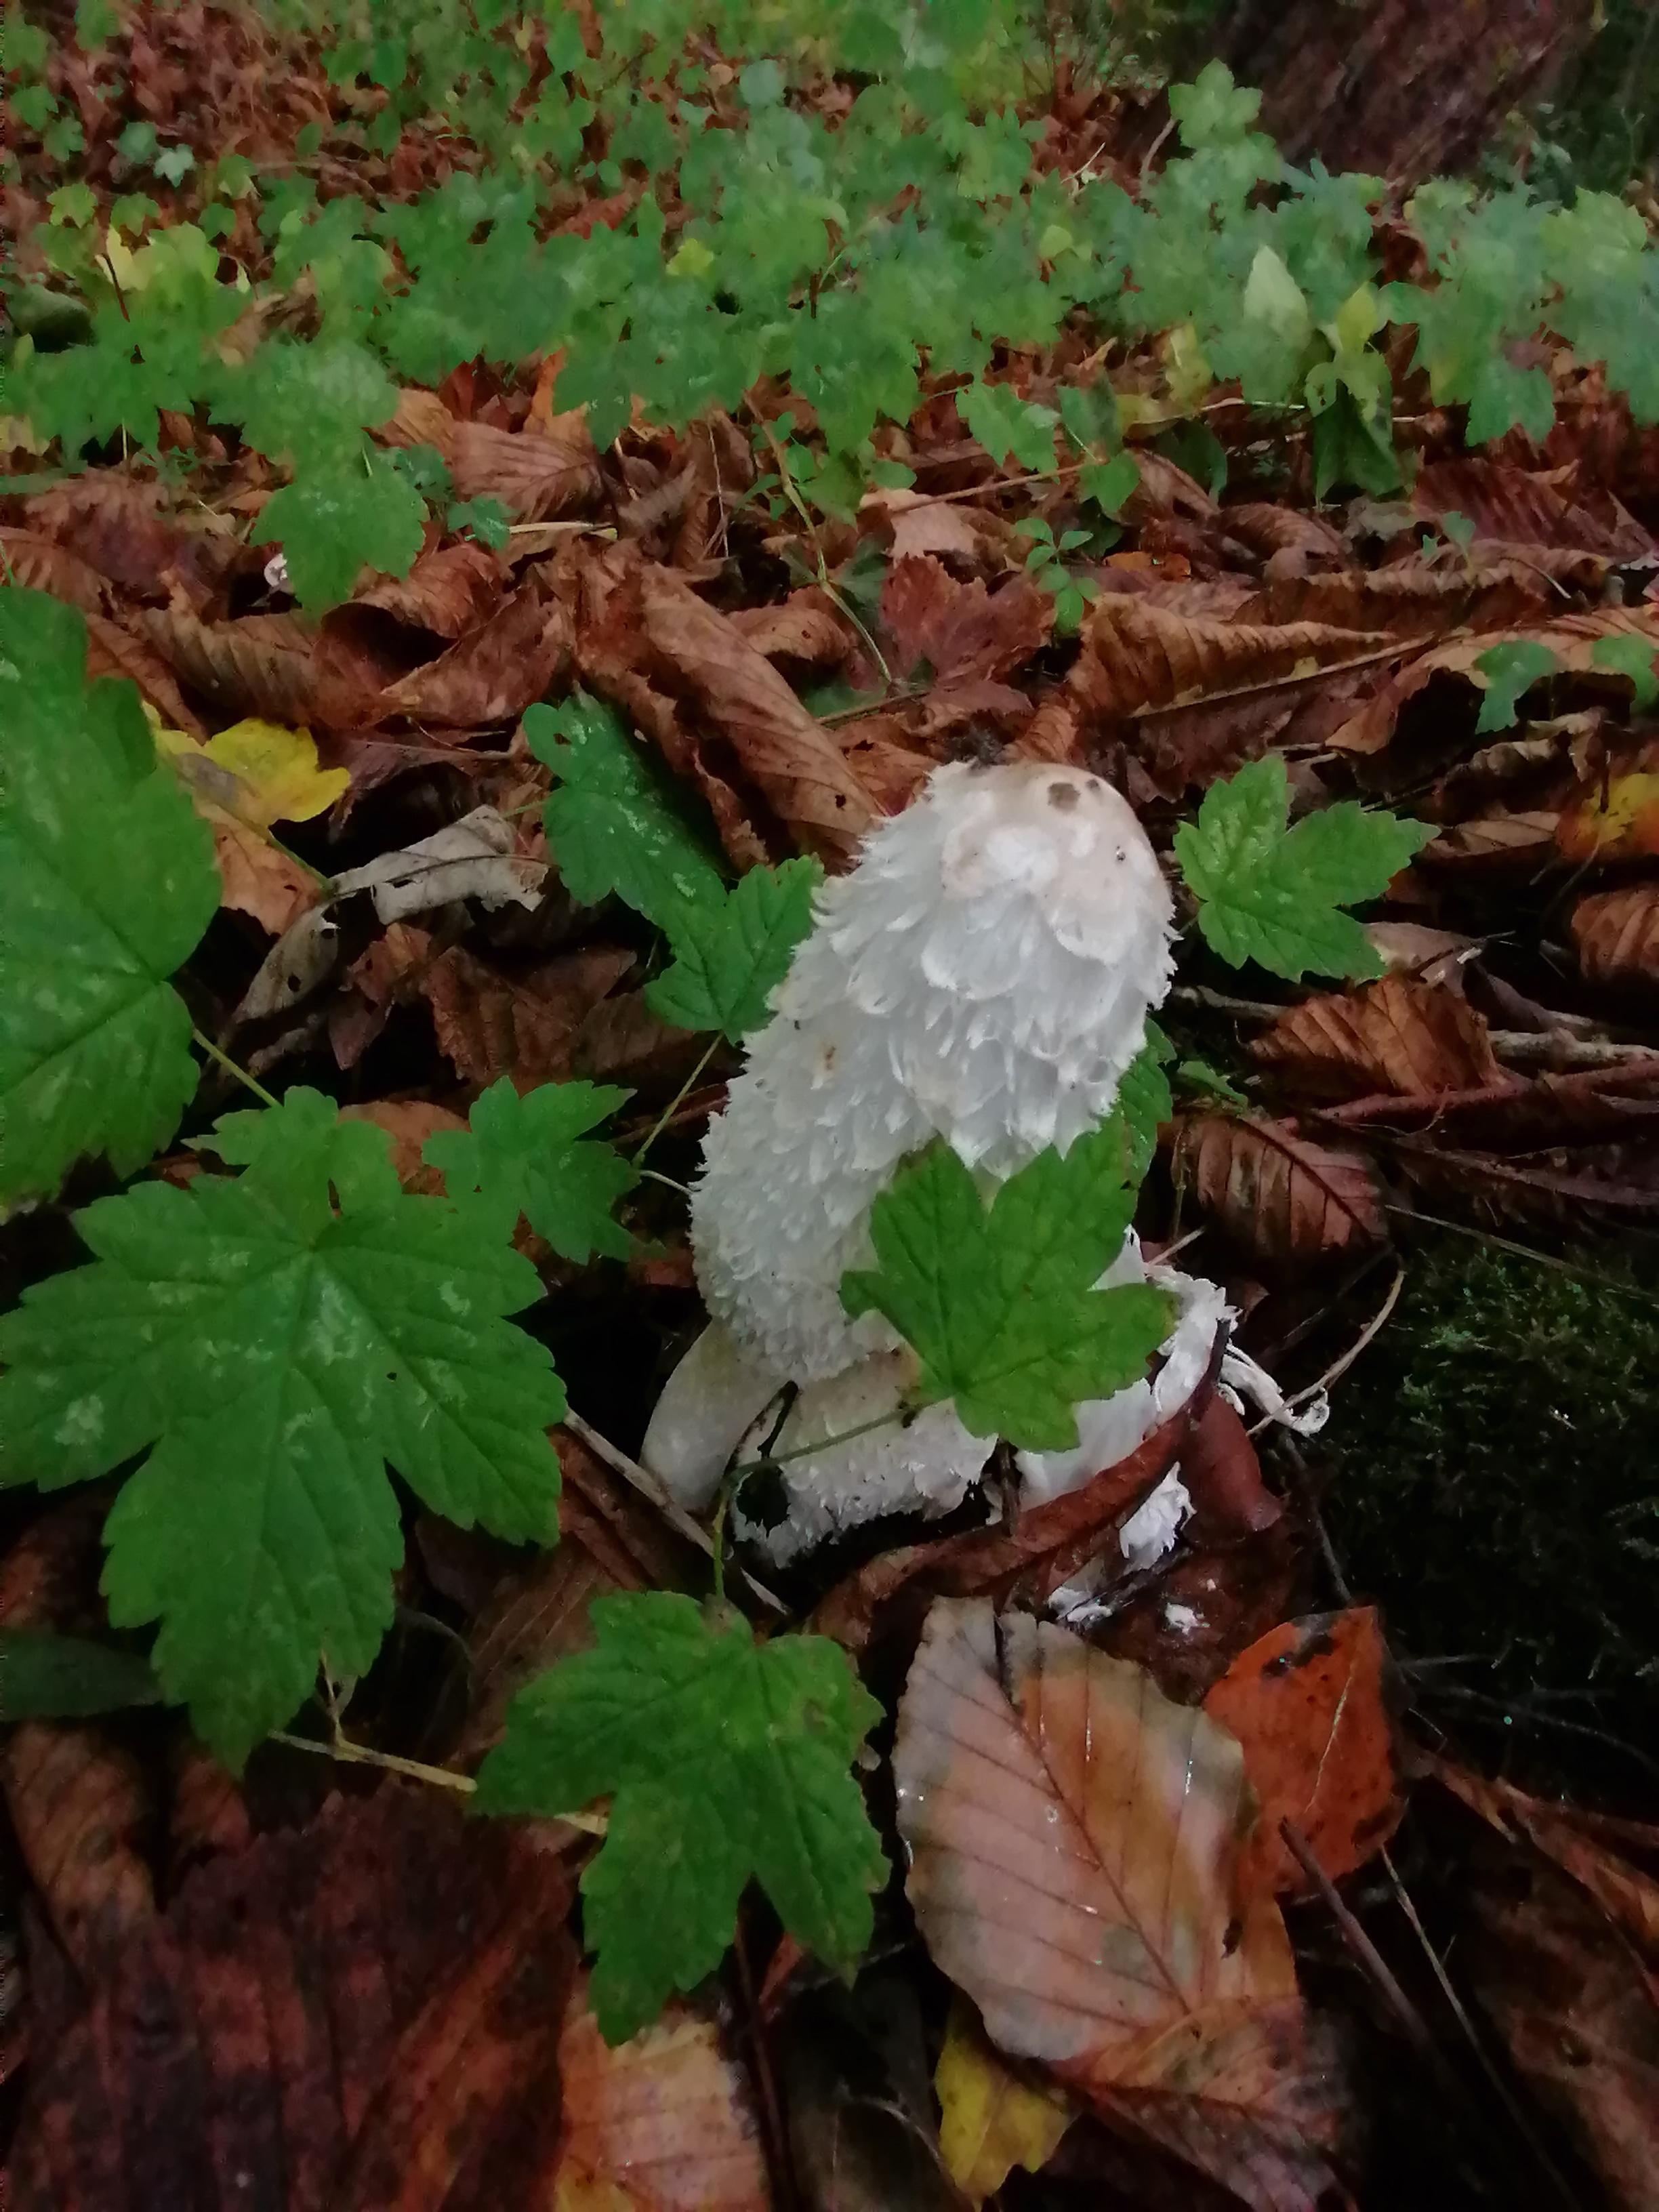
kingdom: Fungi
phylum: Basidiomycota
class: Agaricomycetes
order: Agaricales
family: Agaricaceae
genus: Coprinus
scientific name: Coprinus comatus
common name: stor parykhat
